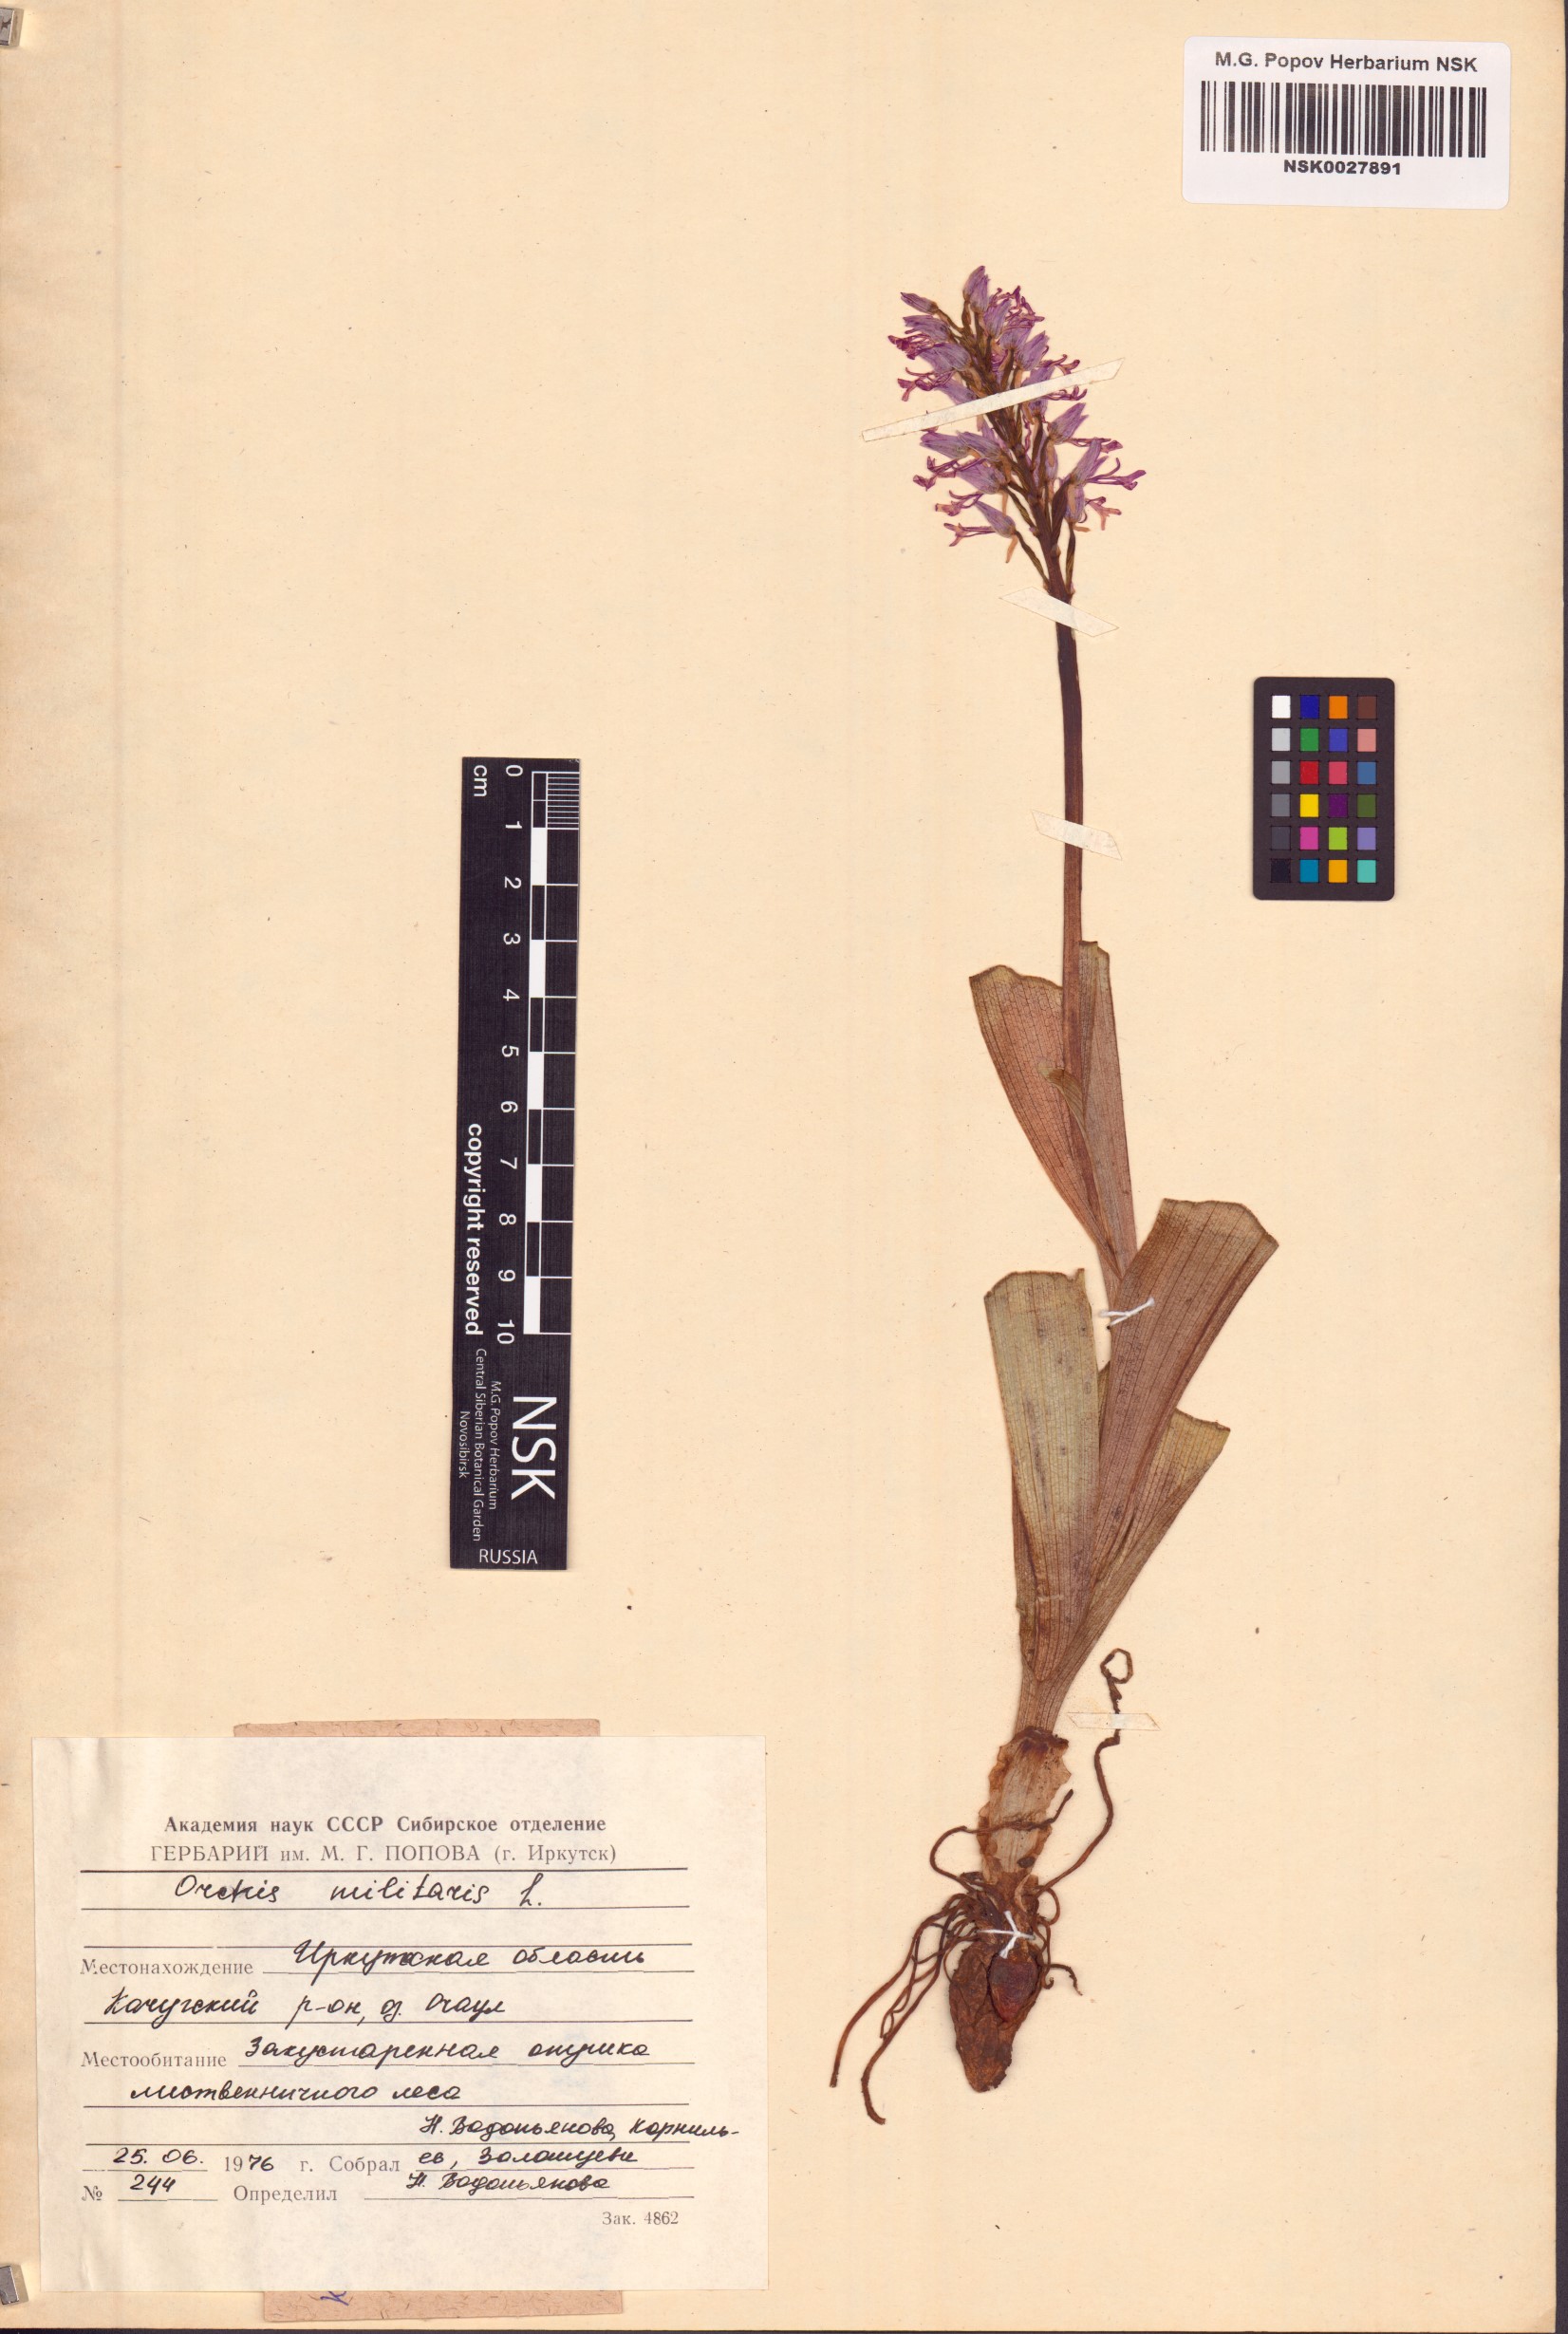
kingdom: Plantae
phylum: Tracheophyta
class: Liliopsida
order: Asparagales
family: Orchidaceae
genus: Orchis
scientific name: Orchis militaris
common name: Military orchid
